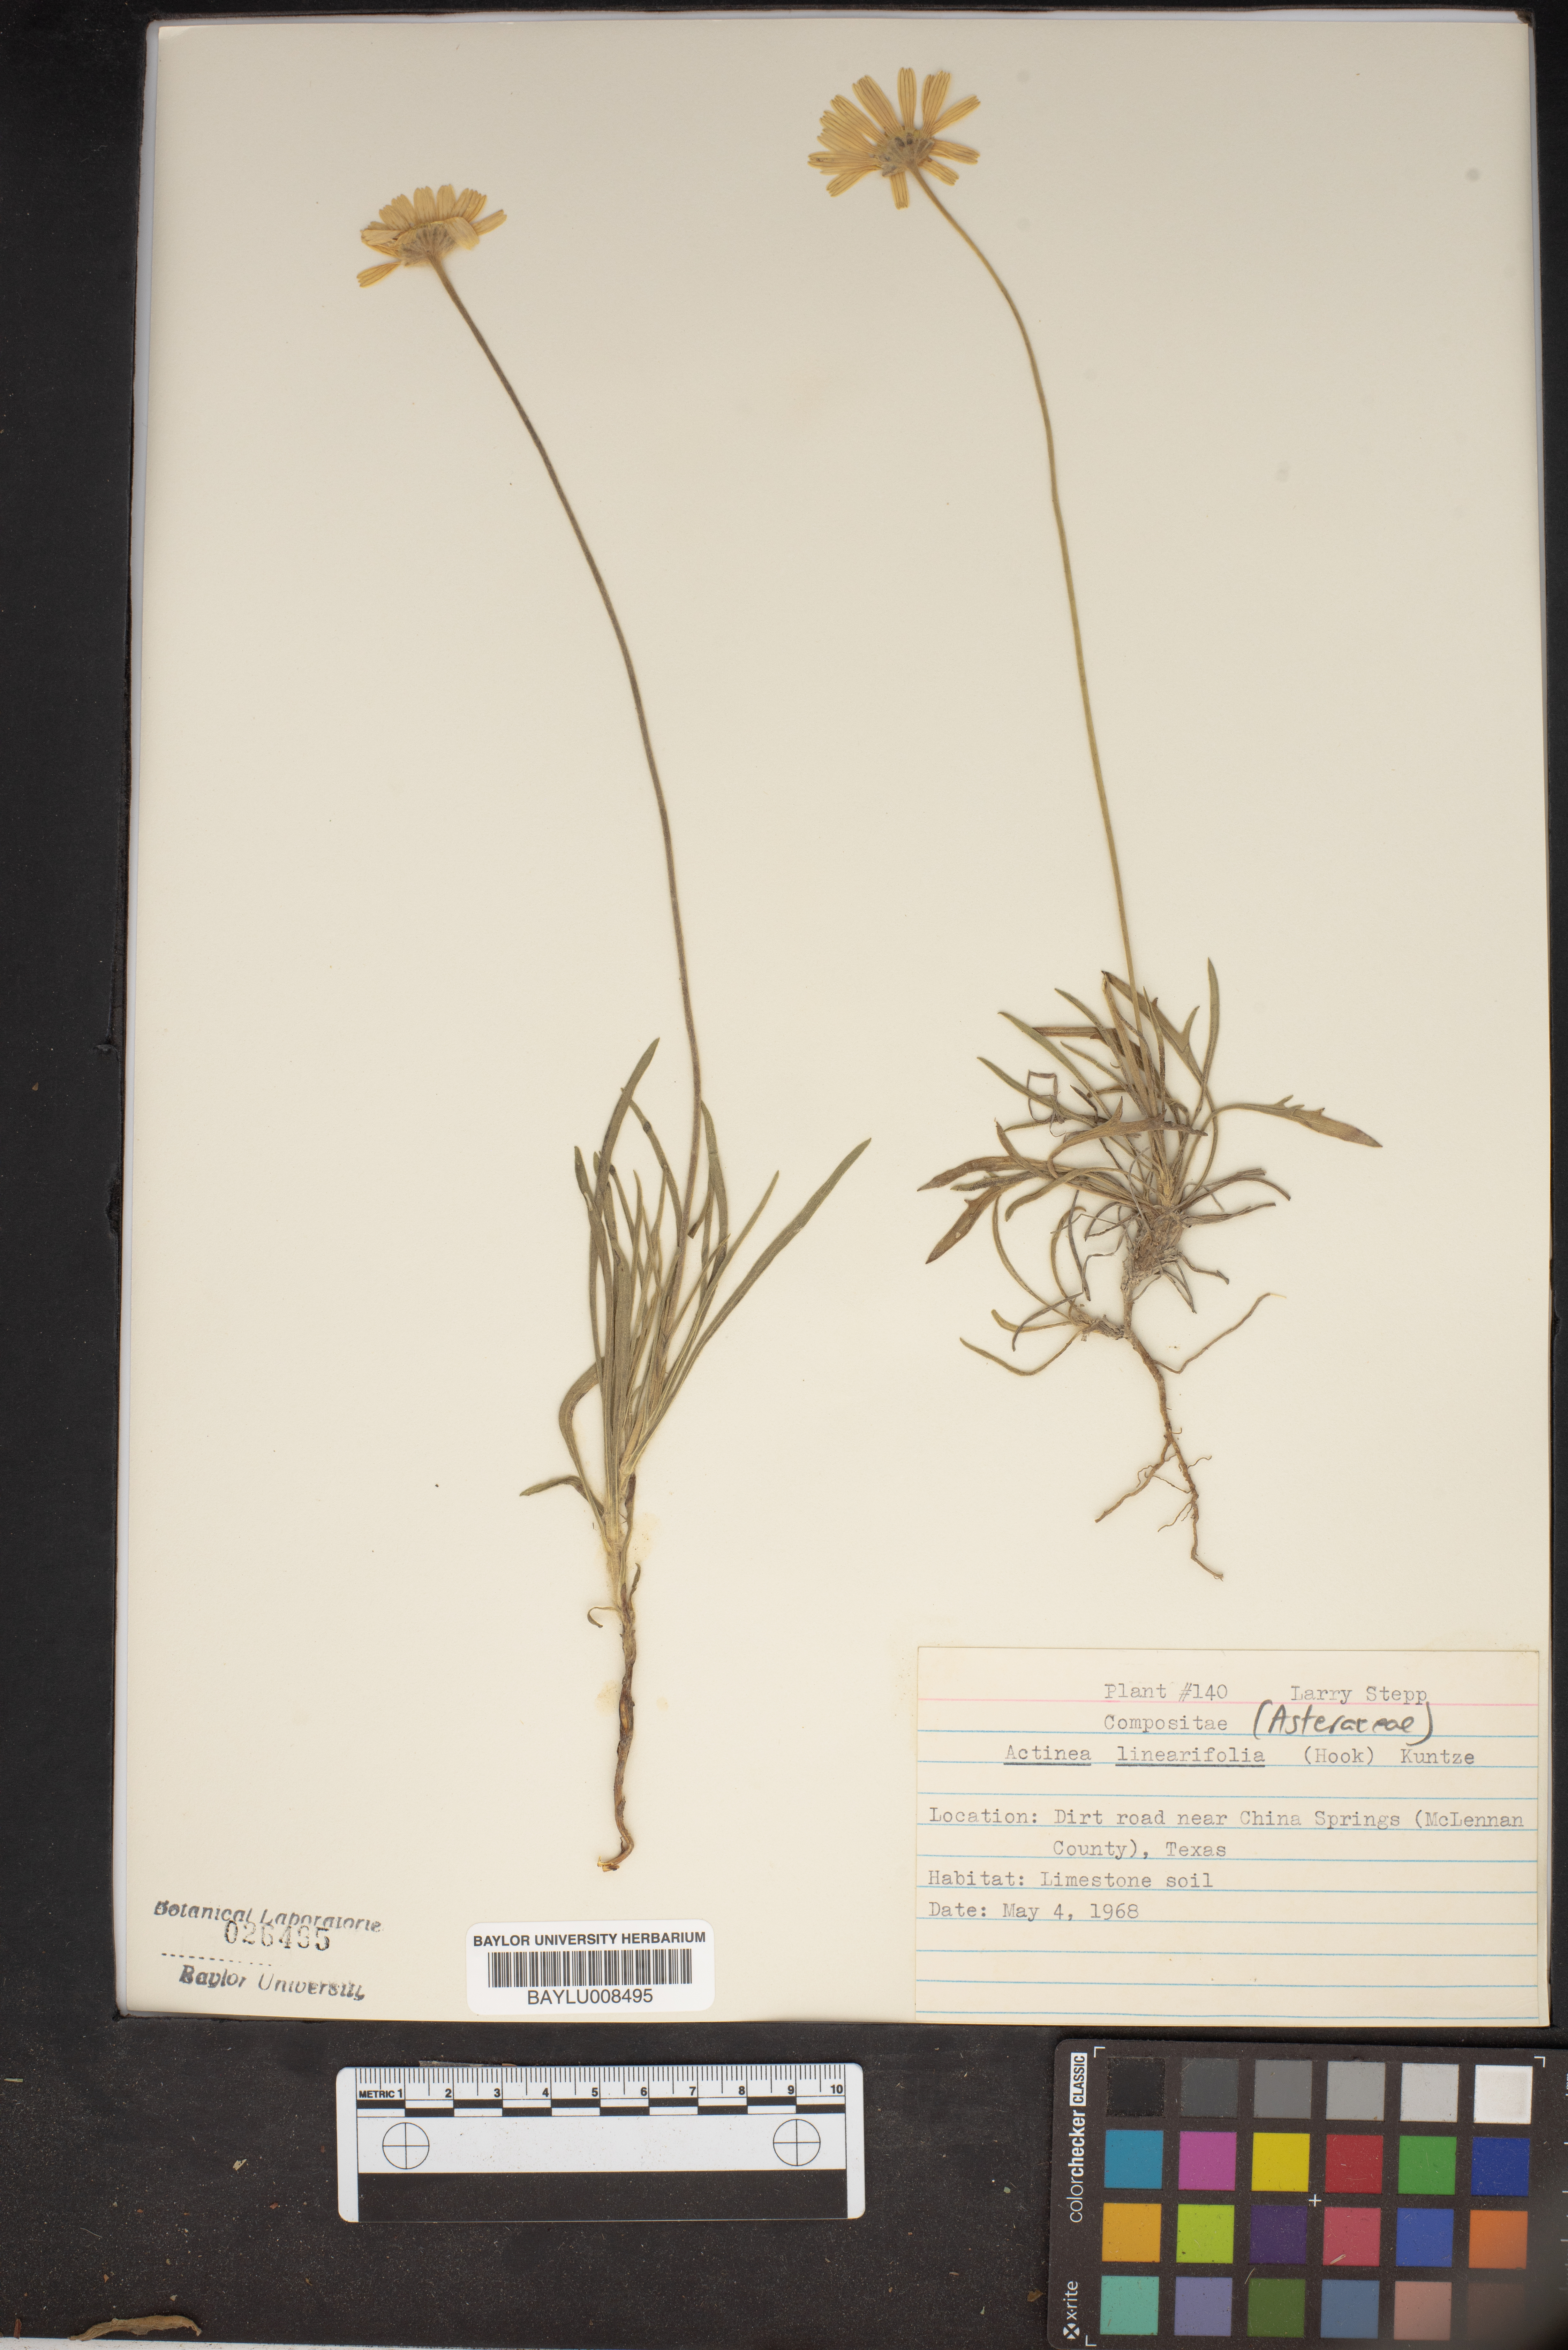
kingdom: Plantae
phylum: Tracheophyta
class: Magnoliopsida
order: Asterales
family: Asteraceae
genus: Tetraneuris
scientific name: Tetraneuris linearifolia
